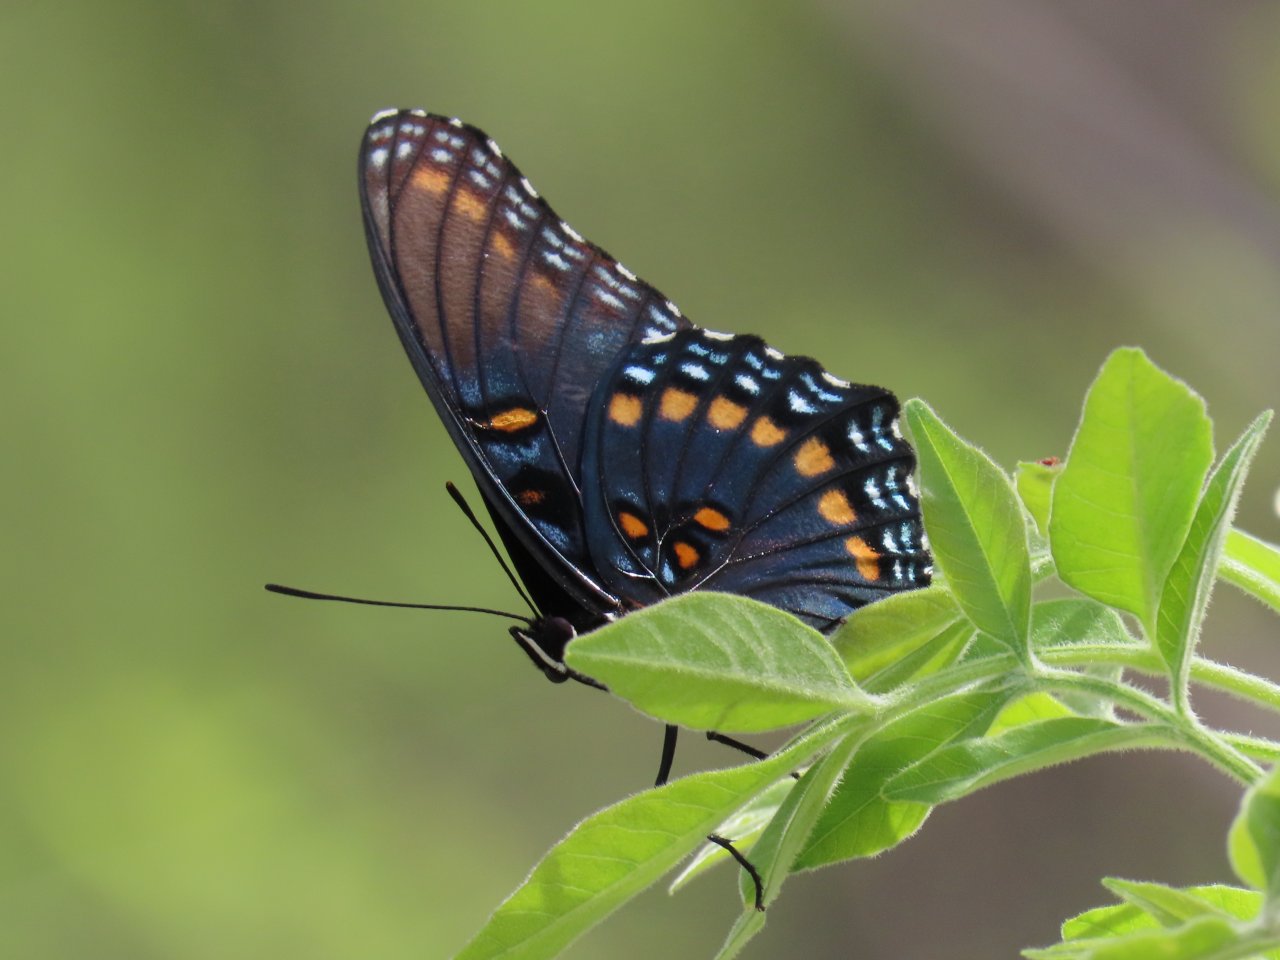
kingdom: Animalia
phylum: Arthropoda
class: Insecta
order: Lepidoptera
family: Nymphalidae
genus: Limenitis
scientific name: Limenitis arthemis
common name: Red-spotted Admiral
